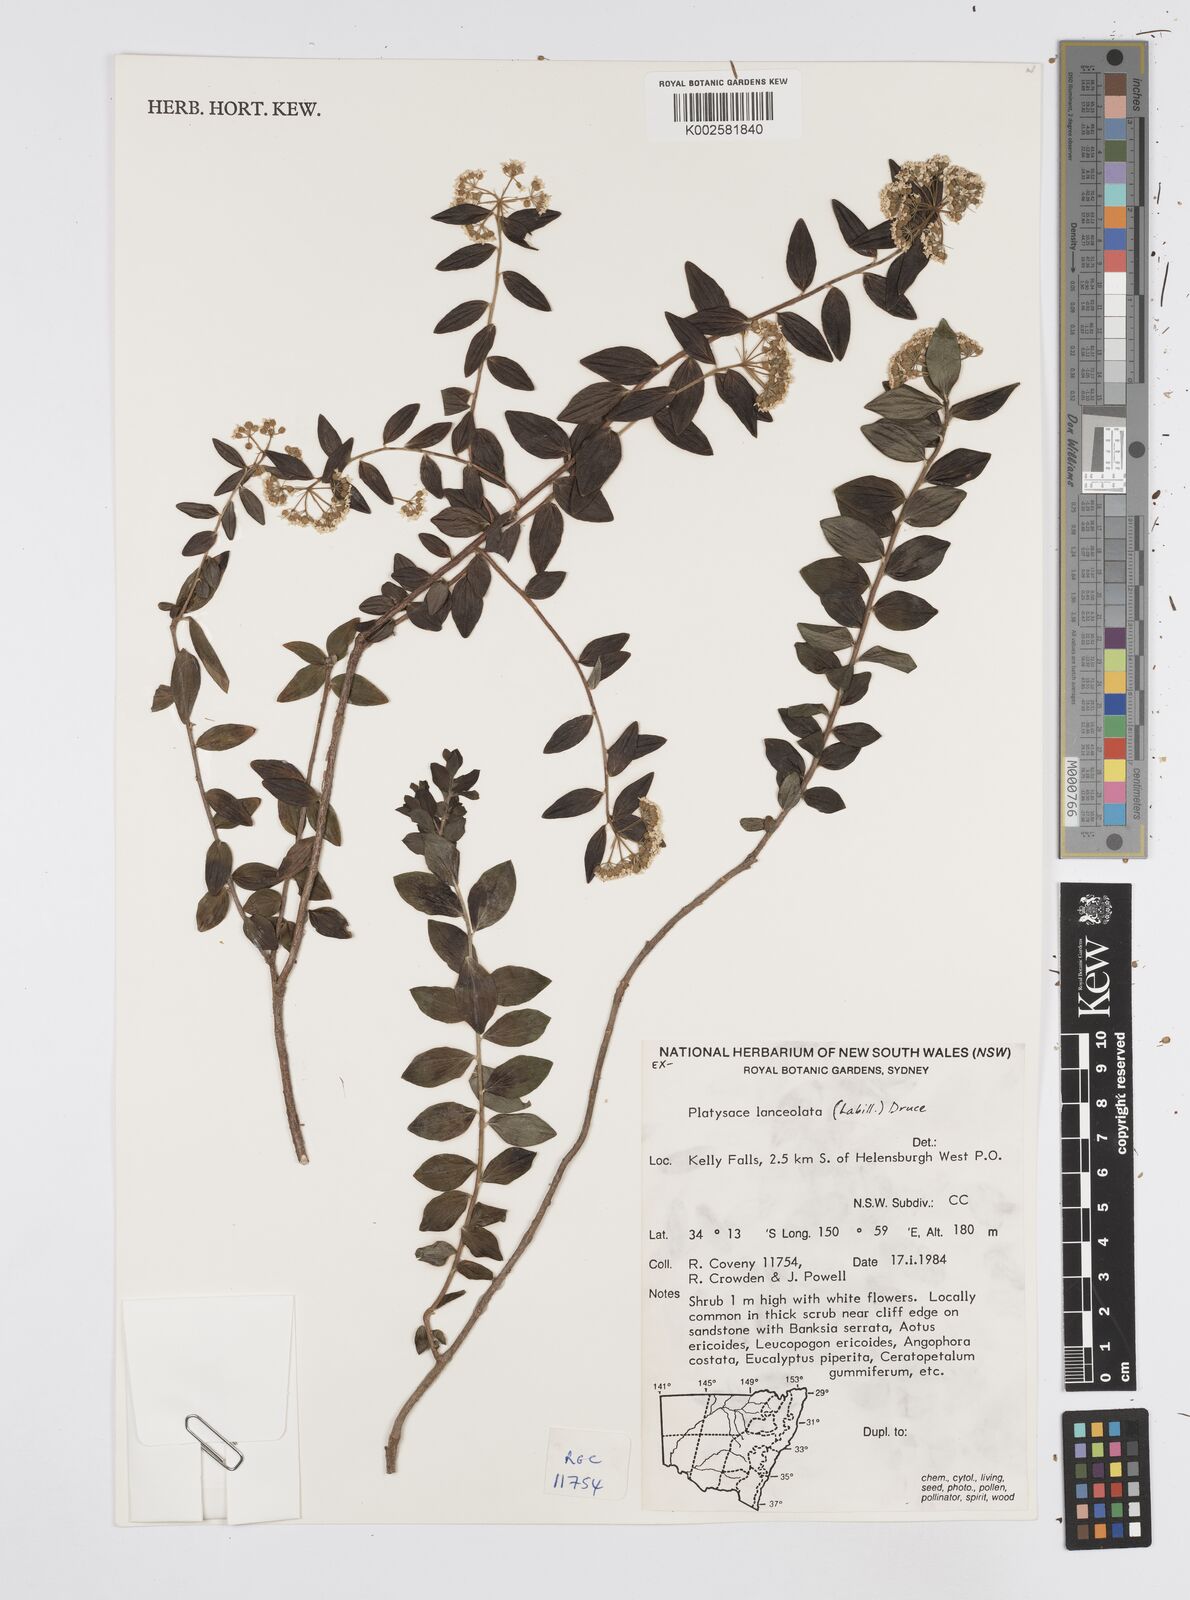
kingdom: Plantae
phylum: Tracheophyta
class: Magnoliopsida
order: Apiales
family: Apiaceae
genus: Platysace
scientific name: Platysace lanceolata
